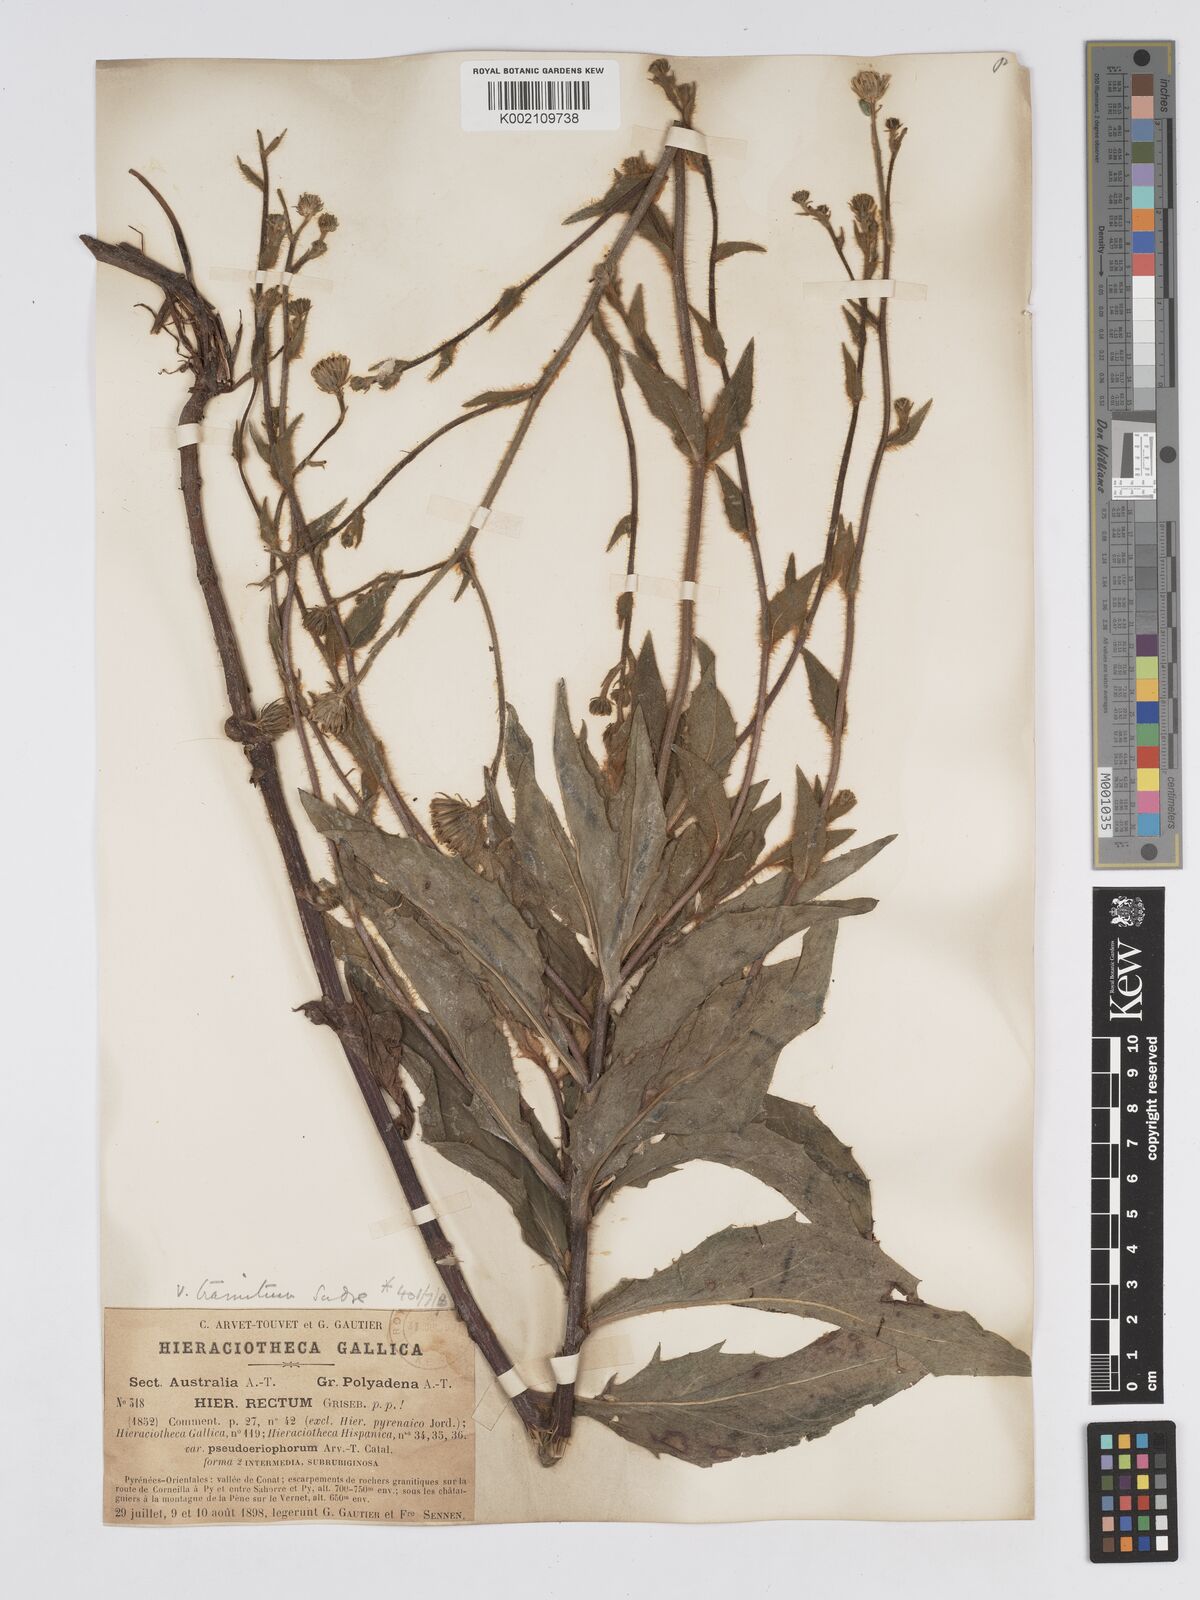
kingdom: Plantae
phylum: Tracheophyta
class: Magnoliopsida
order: Asterales
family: Asteraceae
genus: Hieracium
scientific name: Hieracium patens
